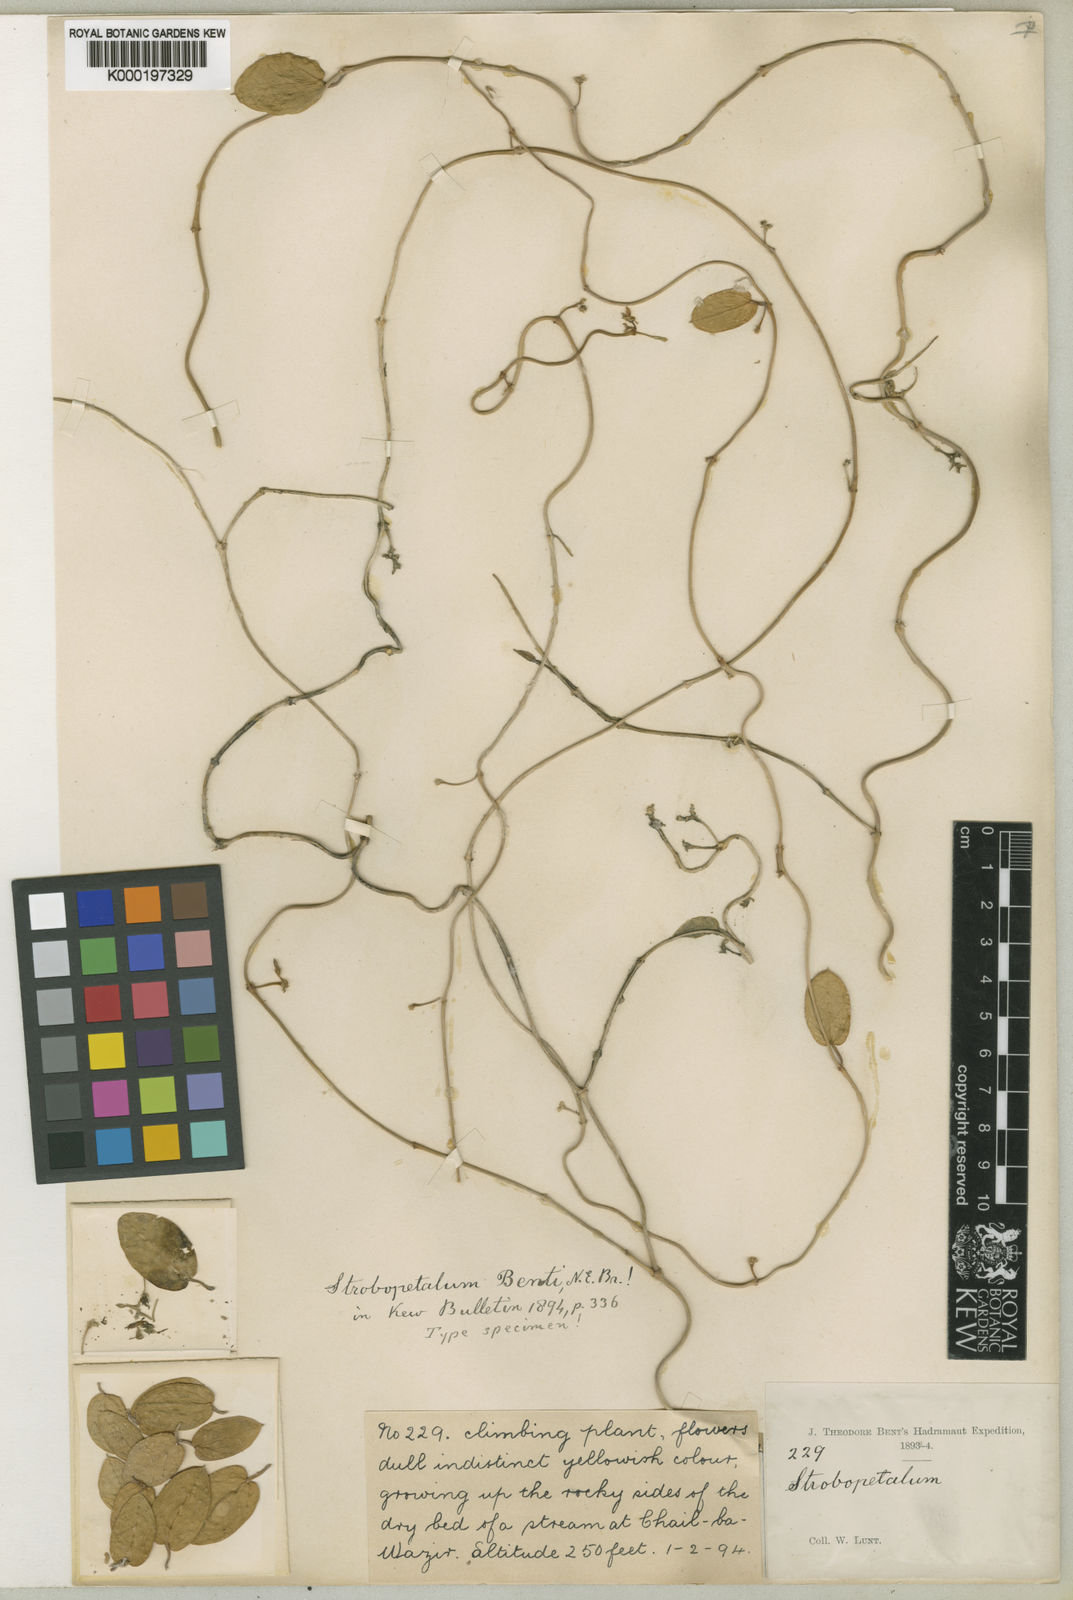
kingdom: Plantae
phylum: Tracheophyta
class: Magnoliopsida
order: Gentianales
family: Apocynaceae
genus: Pentatropis
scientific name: Pentatropis bentii
